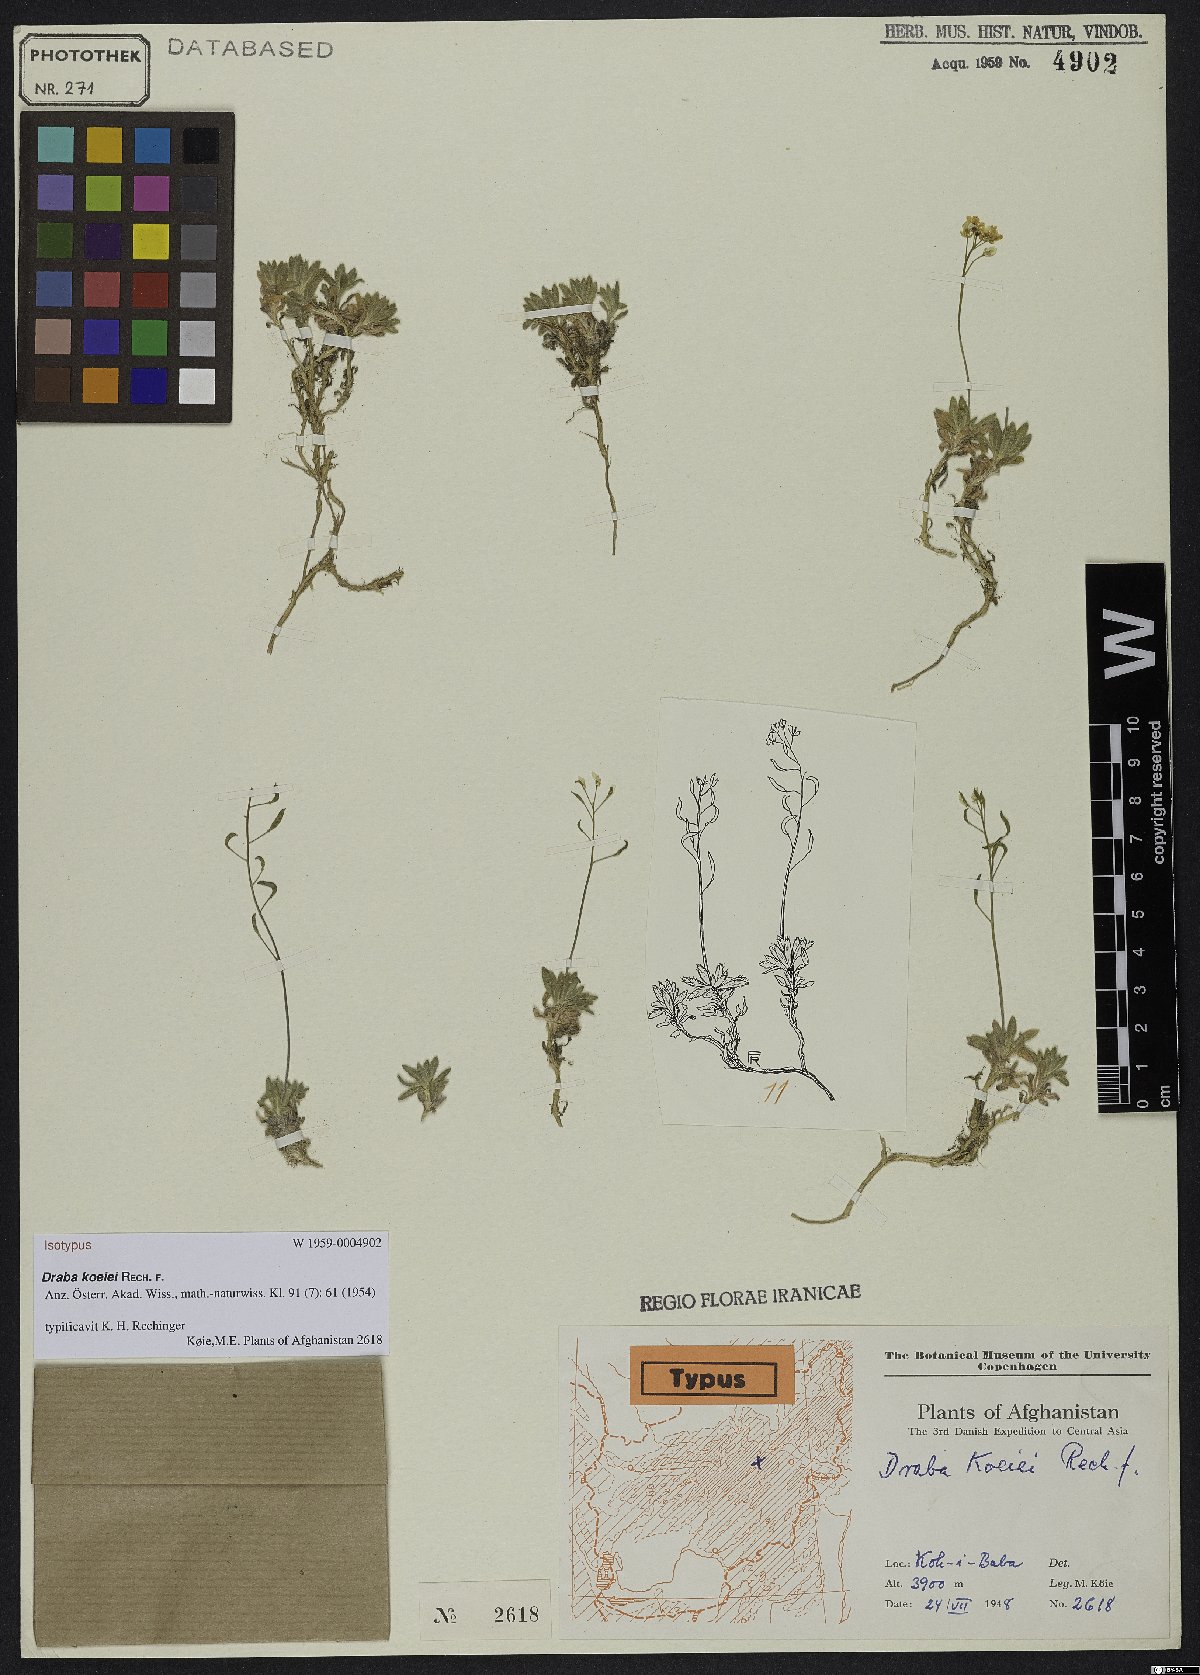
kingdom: Plantae
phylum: Tracheophyta
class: Magnoliopsida
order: Brassicales
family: Brassicaceae
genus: Draba
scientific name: Draba koeiei
